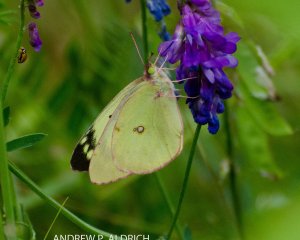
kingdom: Animalia
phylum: Arthropoda
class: Insecta
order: Lepidoptera
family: Pieridae
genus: Colias
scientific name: Colias philodice
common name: Clouded Sulphur
